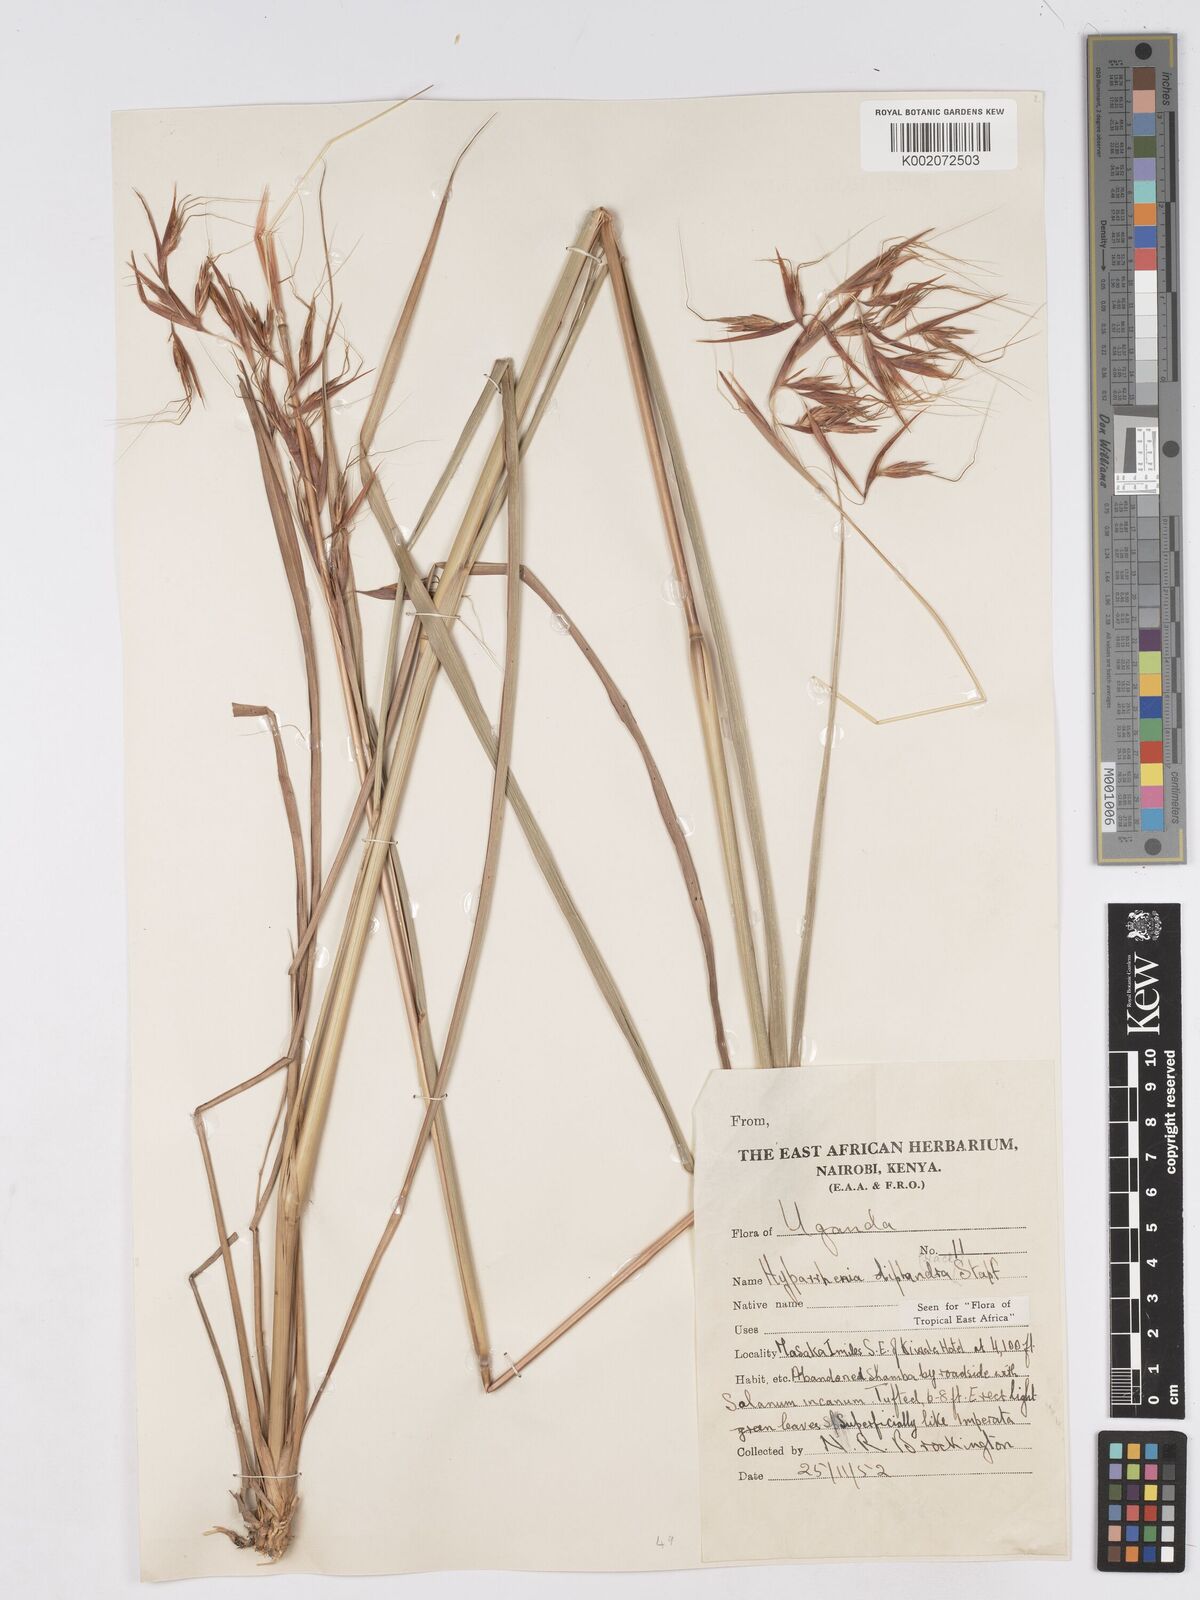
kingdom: Plantae
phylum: Tracheophyta
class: Liliopsida
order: Poales
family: Poaceae
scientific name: Poaceae
